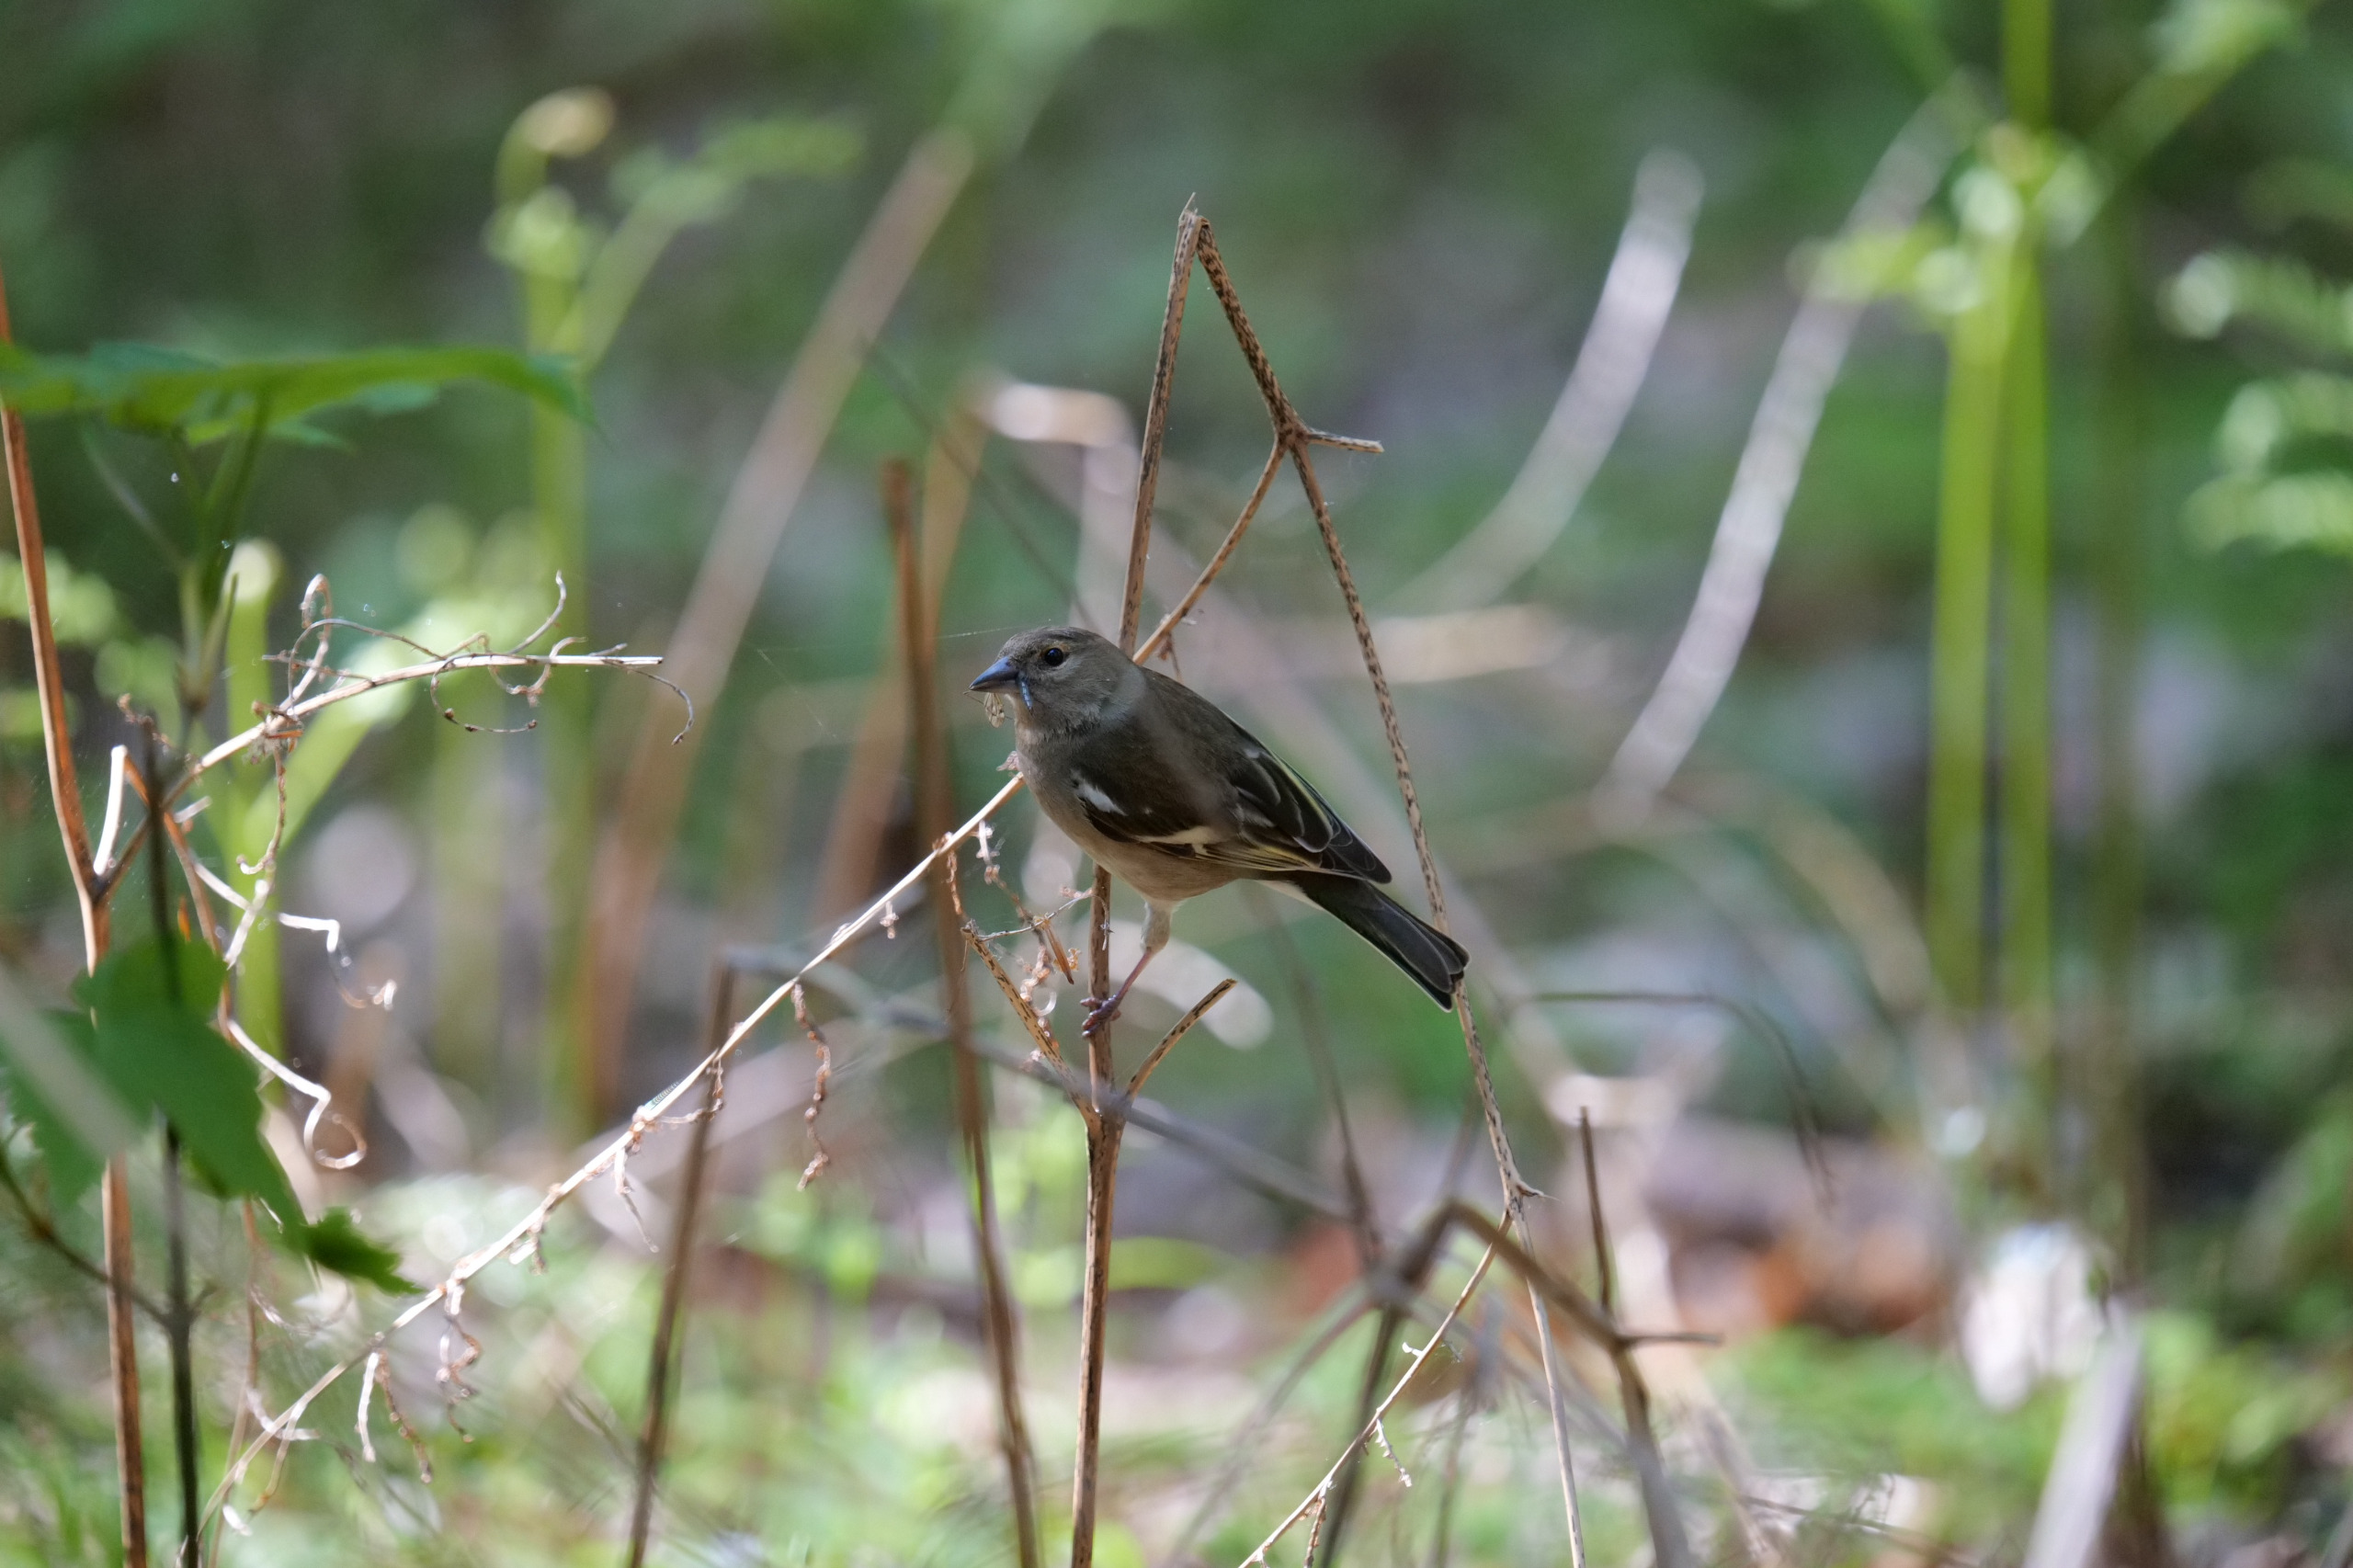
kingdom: Animalia
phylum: Chordata
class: Aves
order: Passeriformes
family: Fringillidae
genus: Fringilla
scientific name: Fringilla coelebs
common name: Bogfinke
